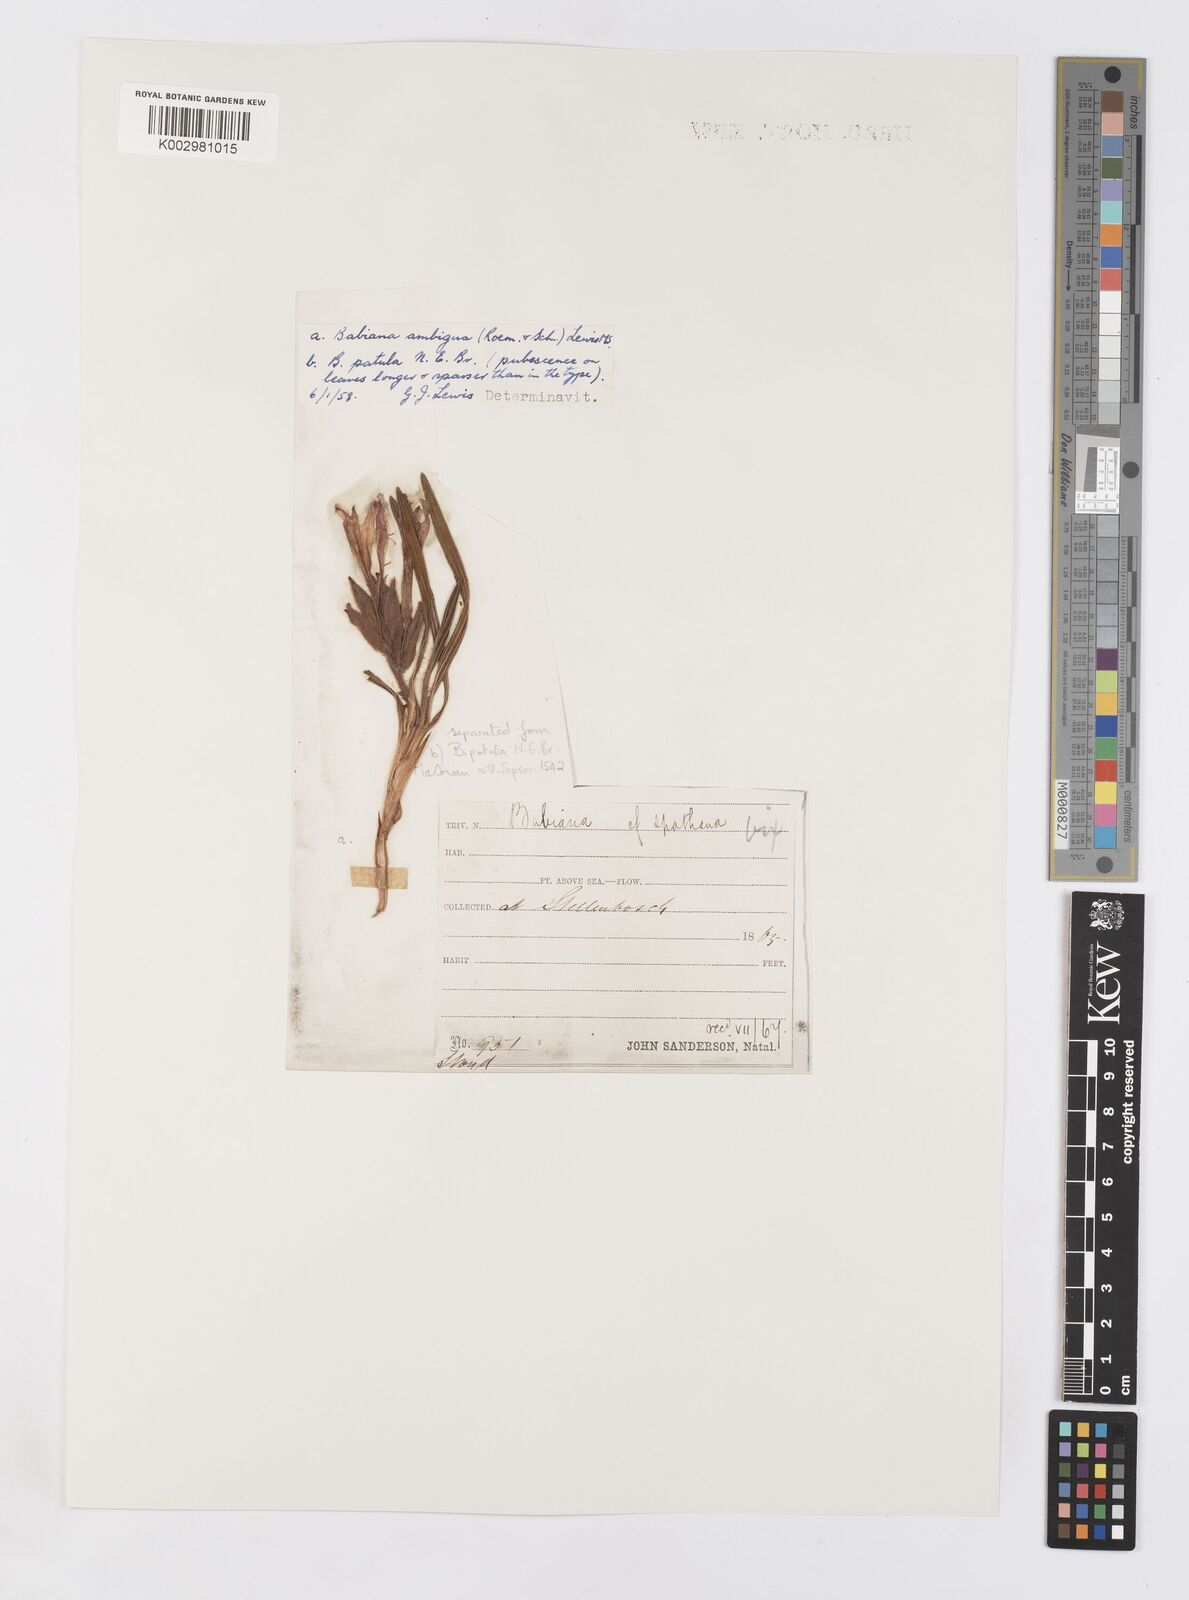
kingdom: Plantae
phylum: Tracheophyta
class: Liliopsida
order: Asparagales
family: Iridaceae
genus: Babiana
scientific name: Babiana ambigua
